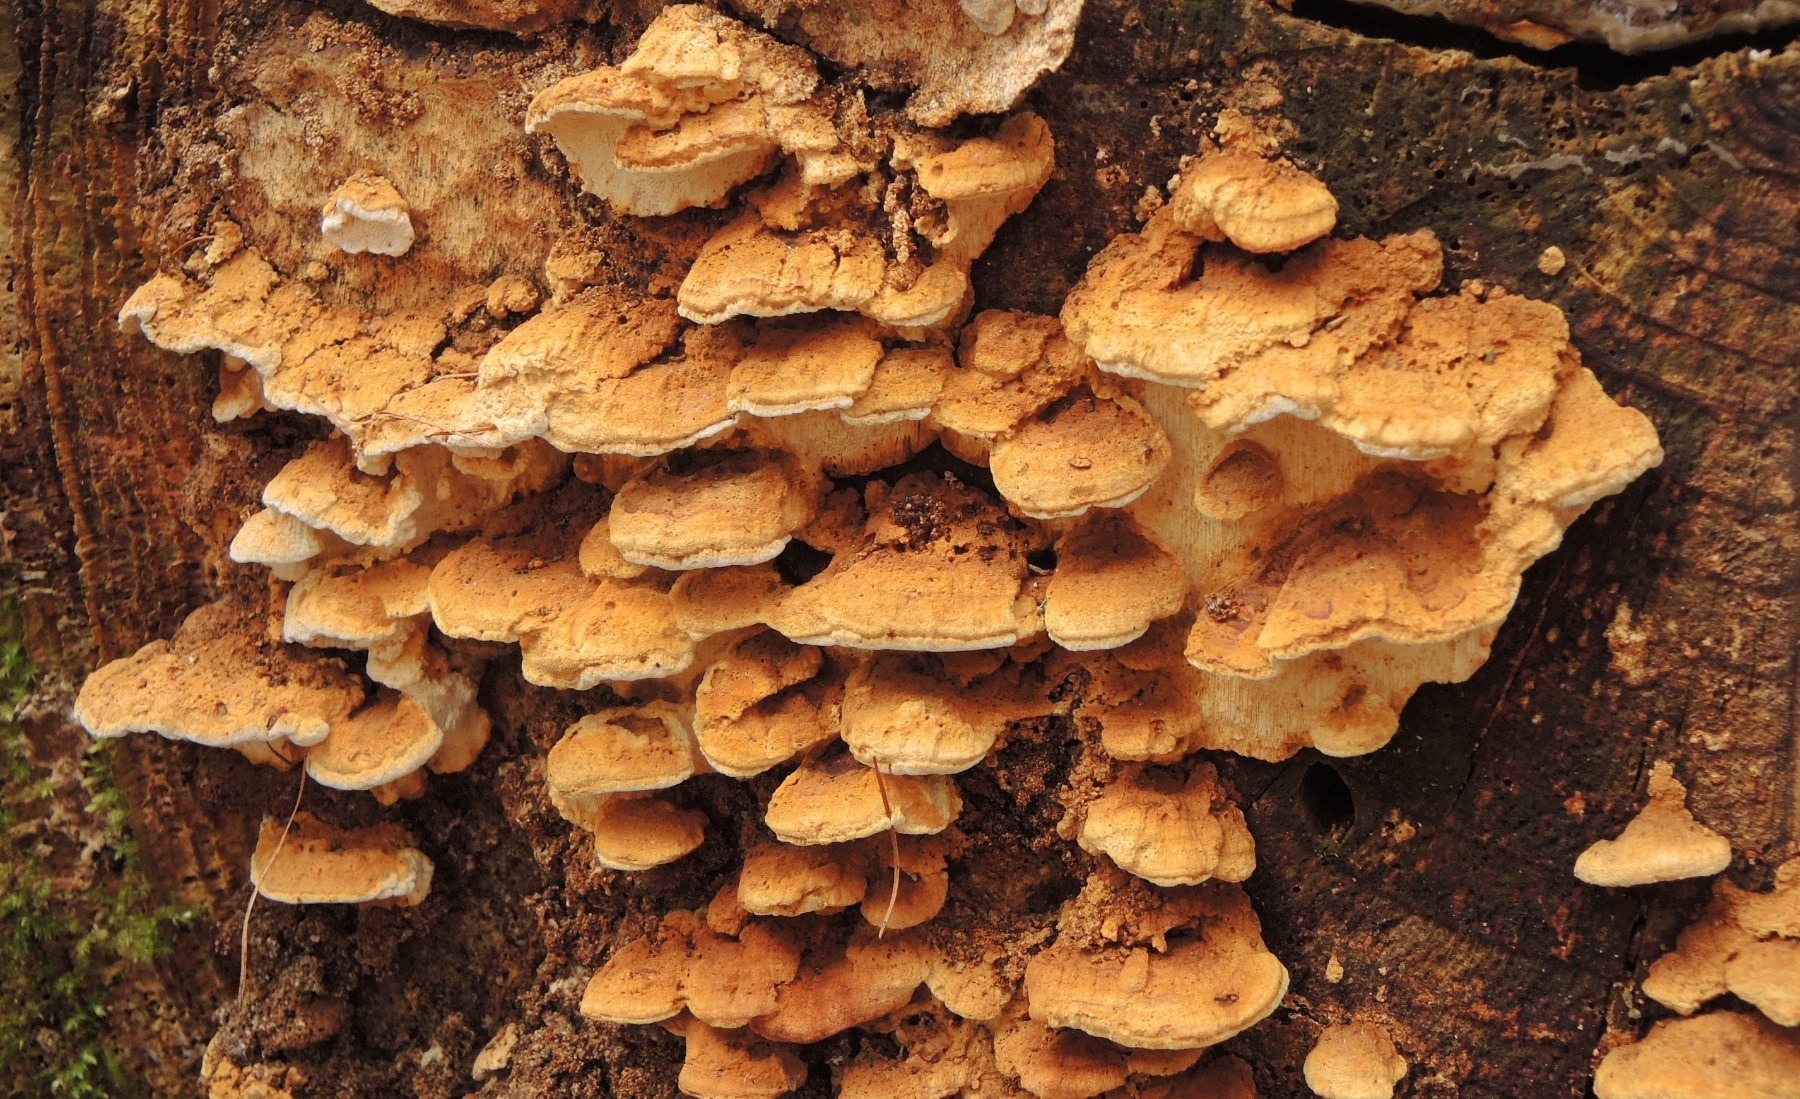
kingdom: Fungi
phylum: Basidiomycota
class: Agaricomycetes
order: Polyporales
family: Fomitopsidaceae
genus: Neoantrodia
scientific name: Neoantrodia serialis
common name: række-sejporesvamp
